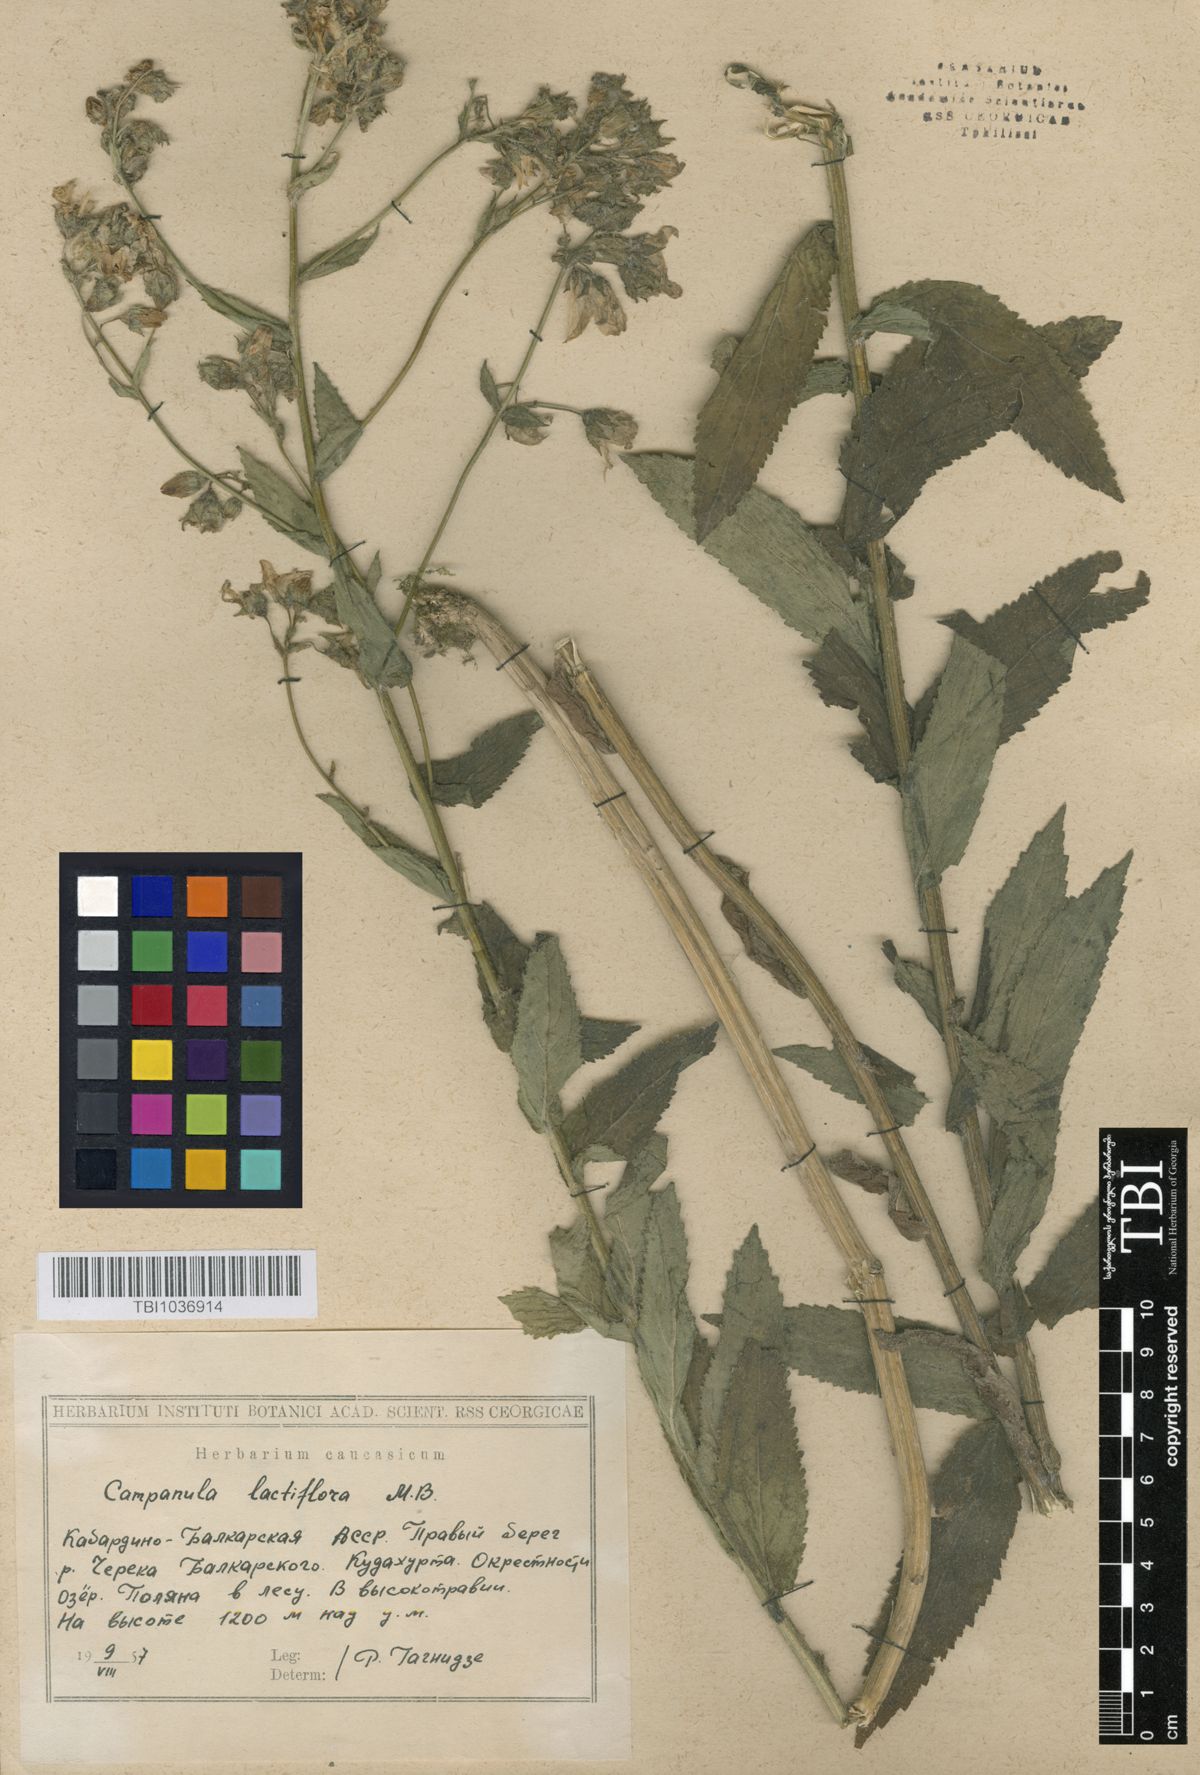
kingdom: Plantae
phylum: Tracheophyta
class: Magnoliopsida
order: Asterales
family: Campanulaceae
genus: Campanula
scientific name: Campanula lactiflora
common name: Milky bellflower
